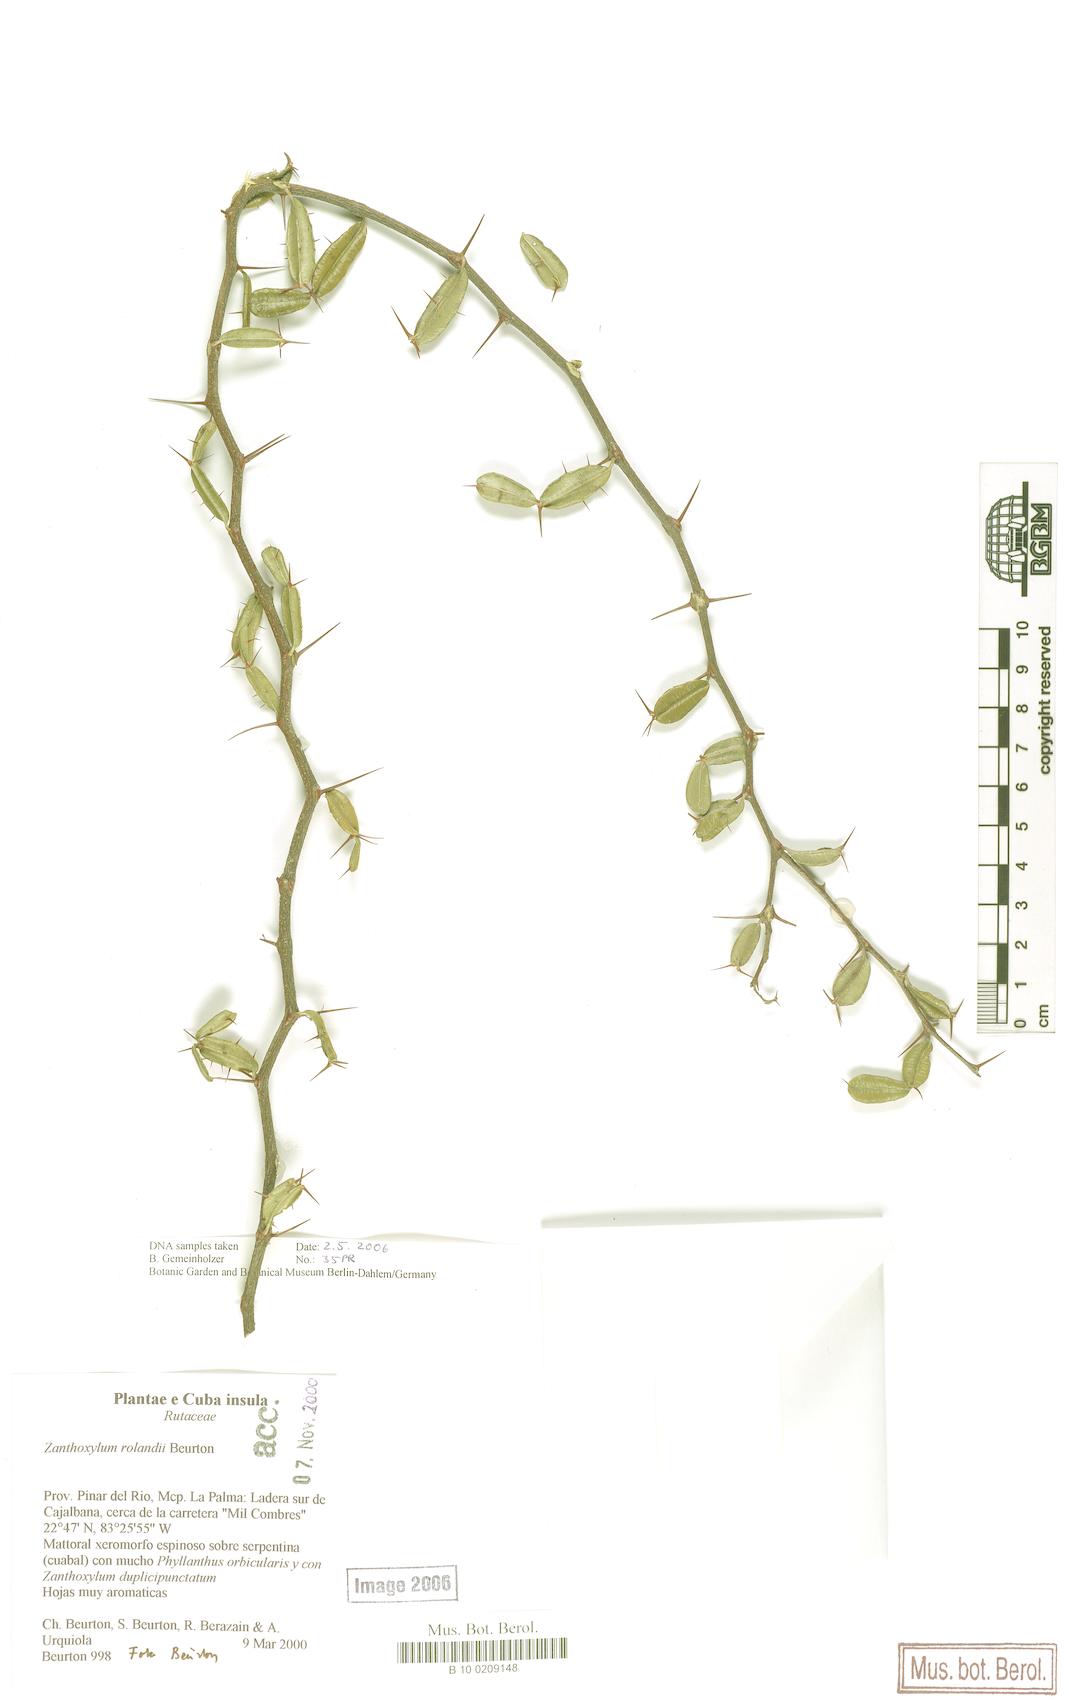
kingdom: Plantae
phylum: Tracheophyta
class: Magnoliopsida
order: Sapindales
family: Rutaceae
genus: Zanthoxylum
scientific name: Zanthoxylum dumosum
